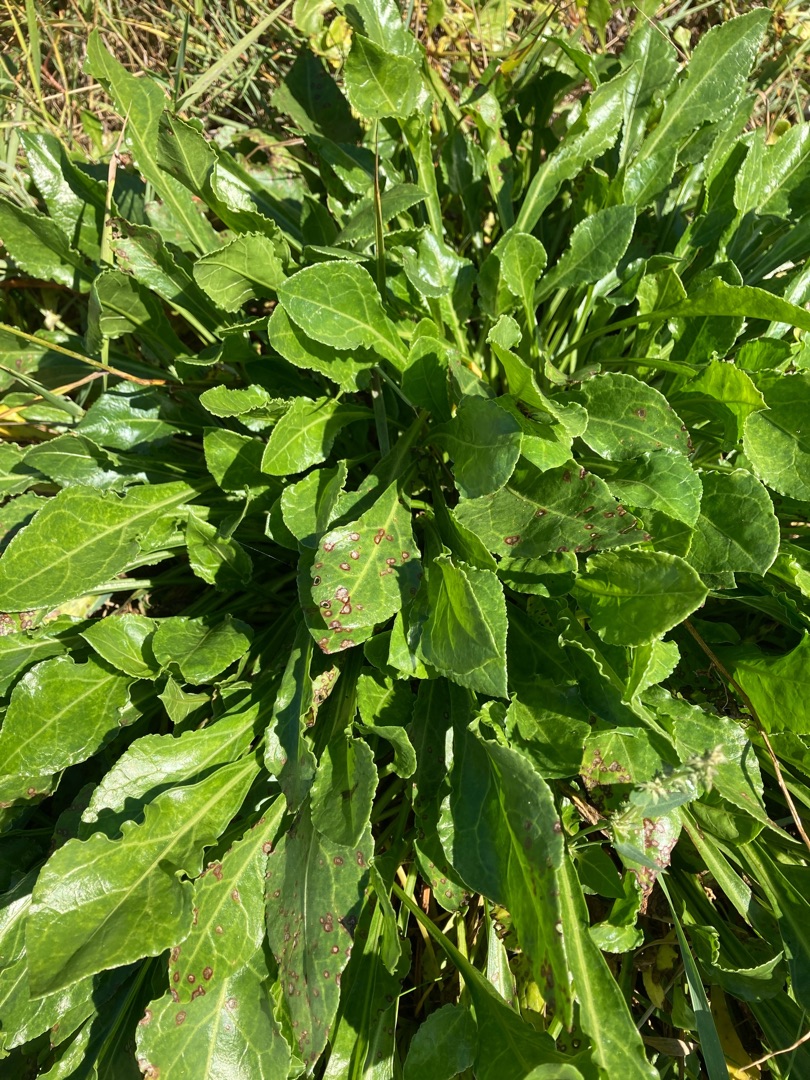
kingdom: Plantae
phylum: Tracheophyta
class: Magnoliopsida
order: Caryophyllales
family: Amaranthaceae
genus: Beta
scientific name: Beta maritima
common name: Strand-bede
